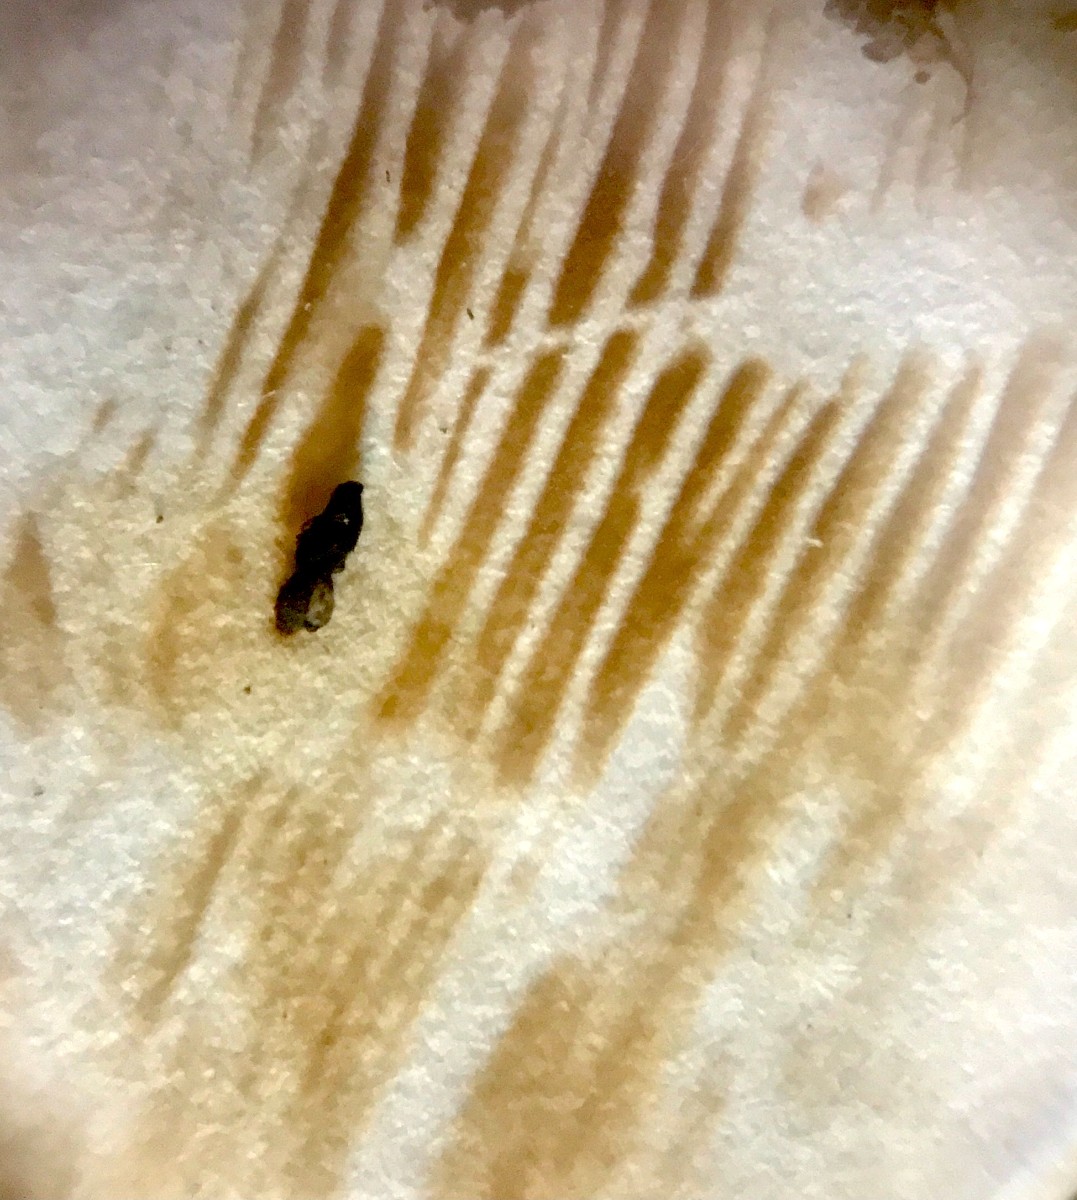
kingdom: Fungi
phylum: Basidiomycota
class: Agaricomycetes
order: Boletales
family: Paxillaceae
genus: Paxillus
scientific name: Paxillus ammoniavirescens
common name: olivensporet netbladhat
